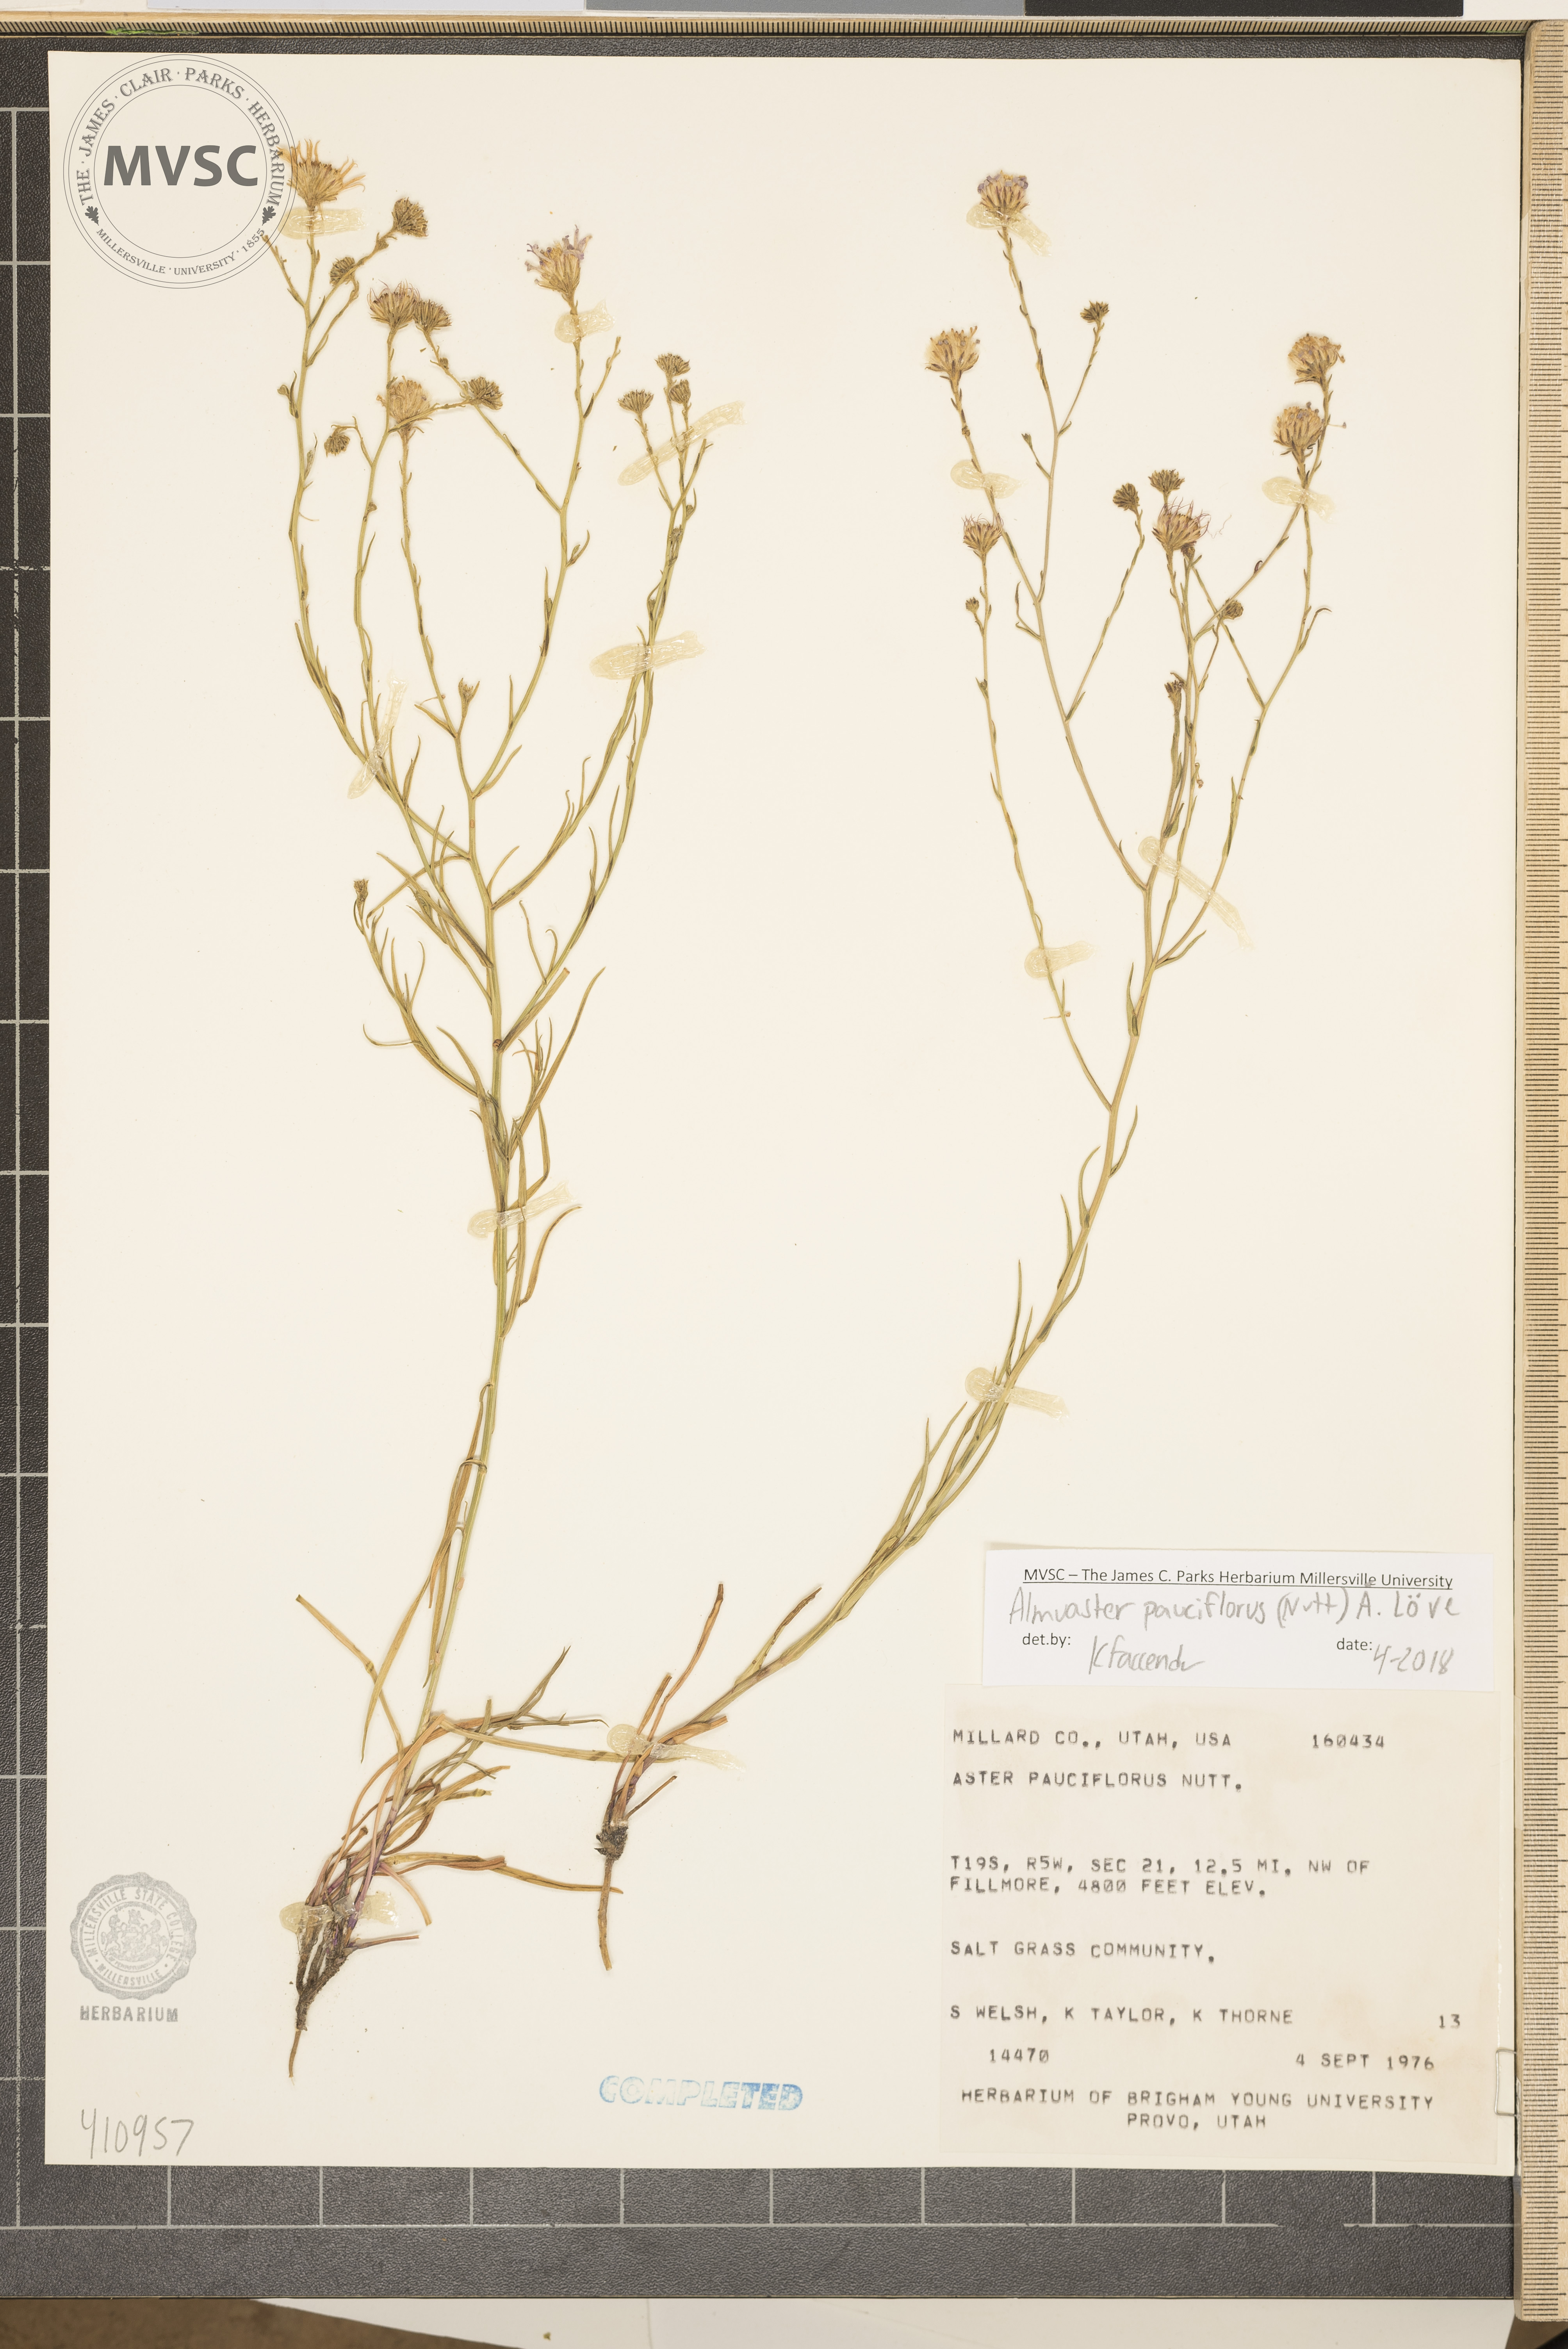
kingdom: Plantae
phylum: Tracheophyta
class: Magnoliopsida
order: Asterales
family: Asteraceae
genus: Almutaster
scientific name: Almutaster pauciflorus
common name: Alkaline aster
